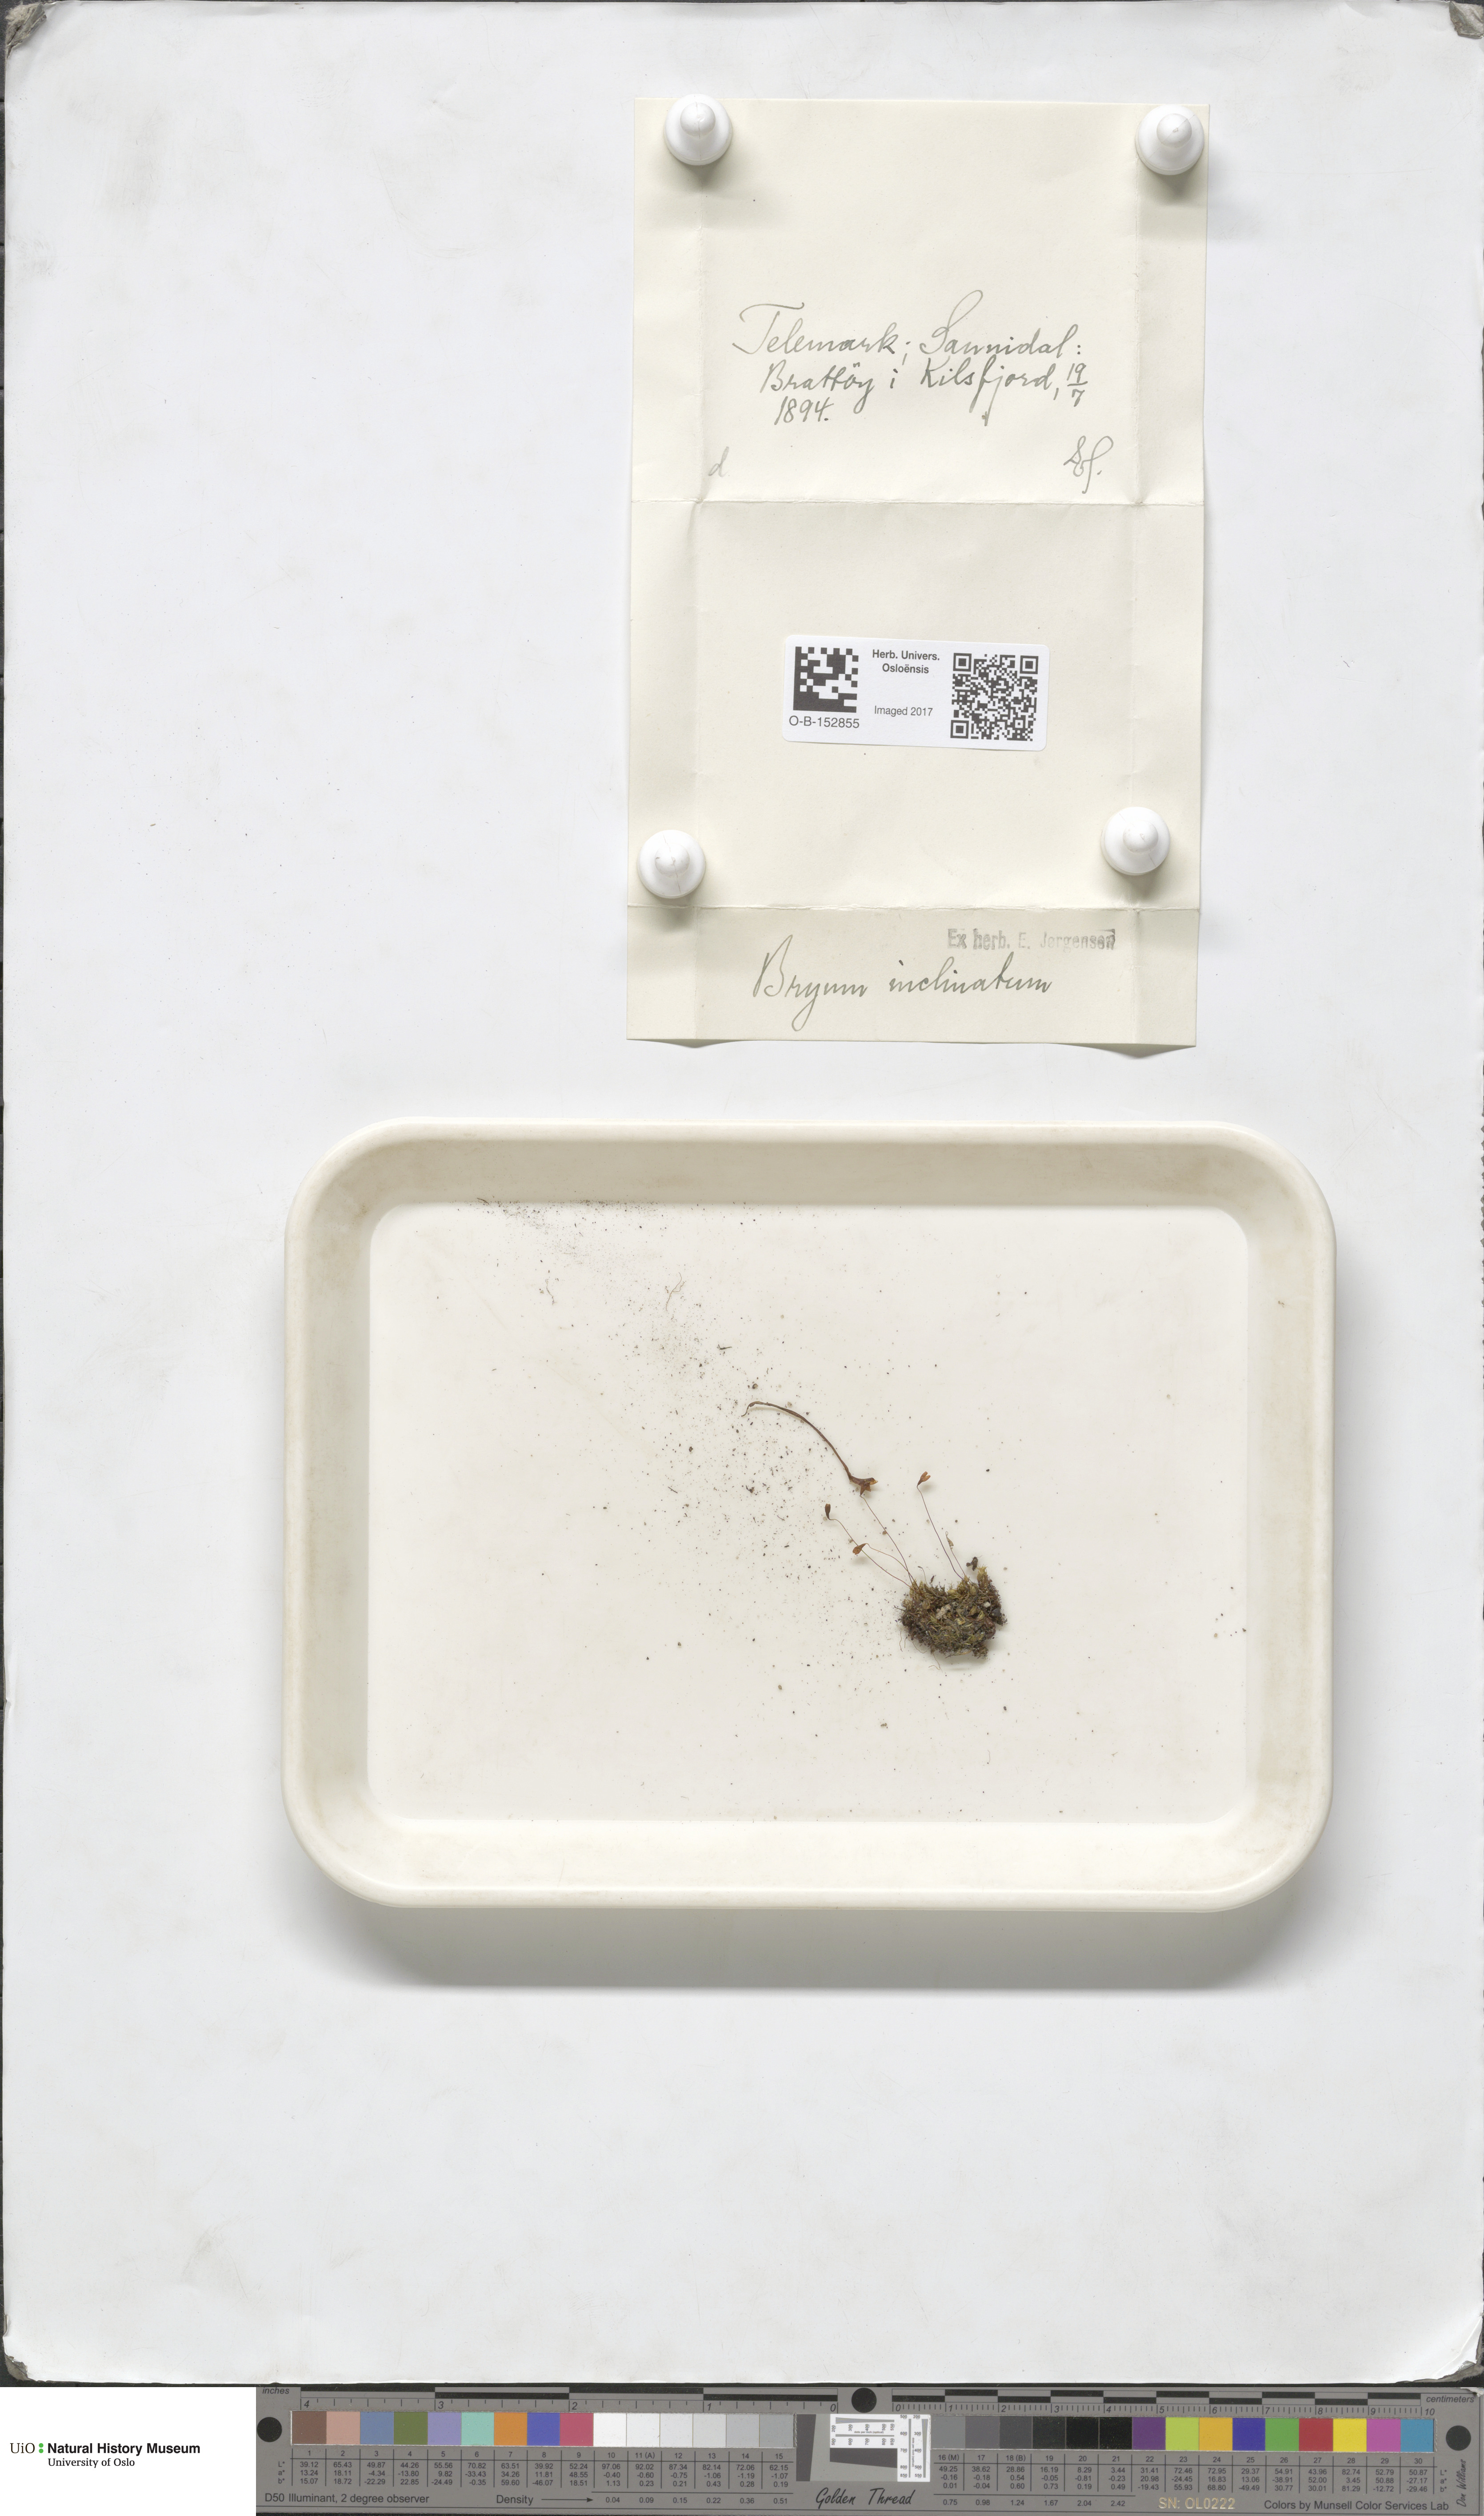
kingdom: Plantae
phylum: Bryophyta
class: Bryopsida
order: Bryales
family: Bryaceae
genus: Ptychostomum
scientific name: Ptychostomum inclinatum
